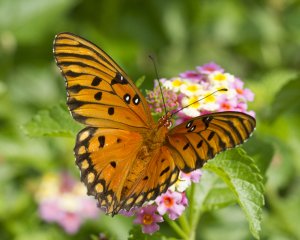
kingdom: Animalia
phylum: Arthropoda
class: Insecta
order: Lepidoptera
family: Nymphalidae
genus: Dione
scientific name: Dione vanillae
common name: Gulf Fritillary
